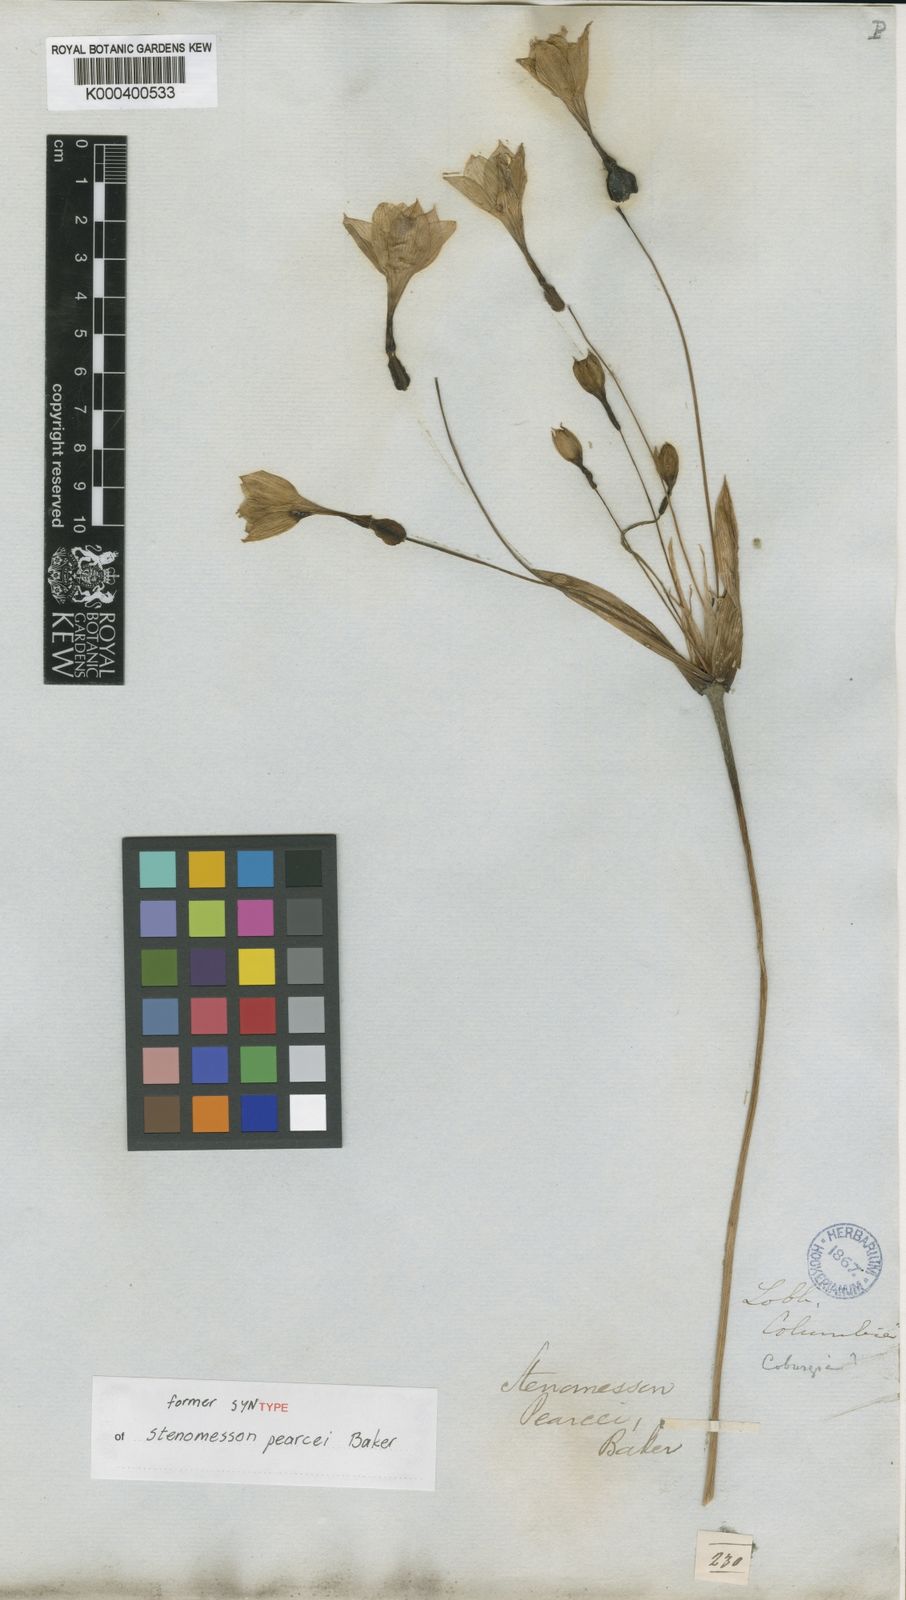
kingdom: Plantae
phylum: Tracheophyta
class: Liliopsida
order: Asparagales
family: Amaryllidaceae
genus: Stenomesson
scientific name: Stenomesson pearcei
